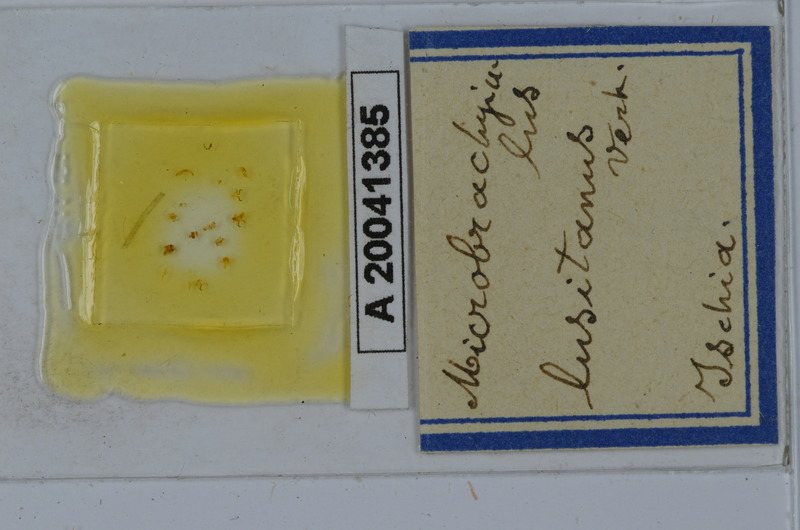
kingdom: Animalia
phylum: Arthropoda
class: Diplopoda
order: Julida
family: Julidae
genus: Brachyiulus
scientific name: Brachyiulus lusitanus
